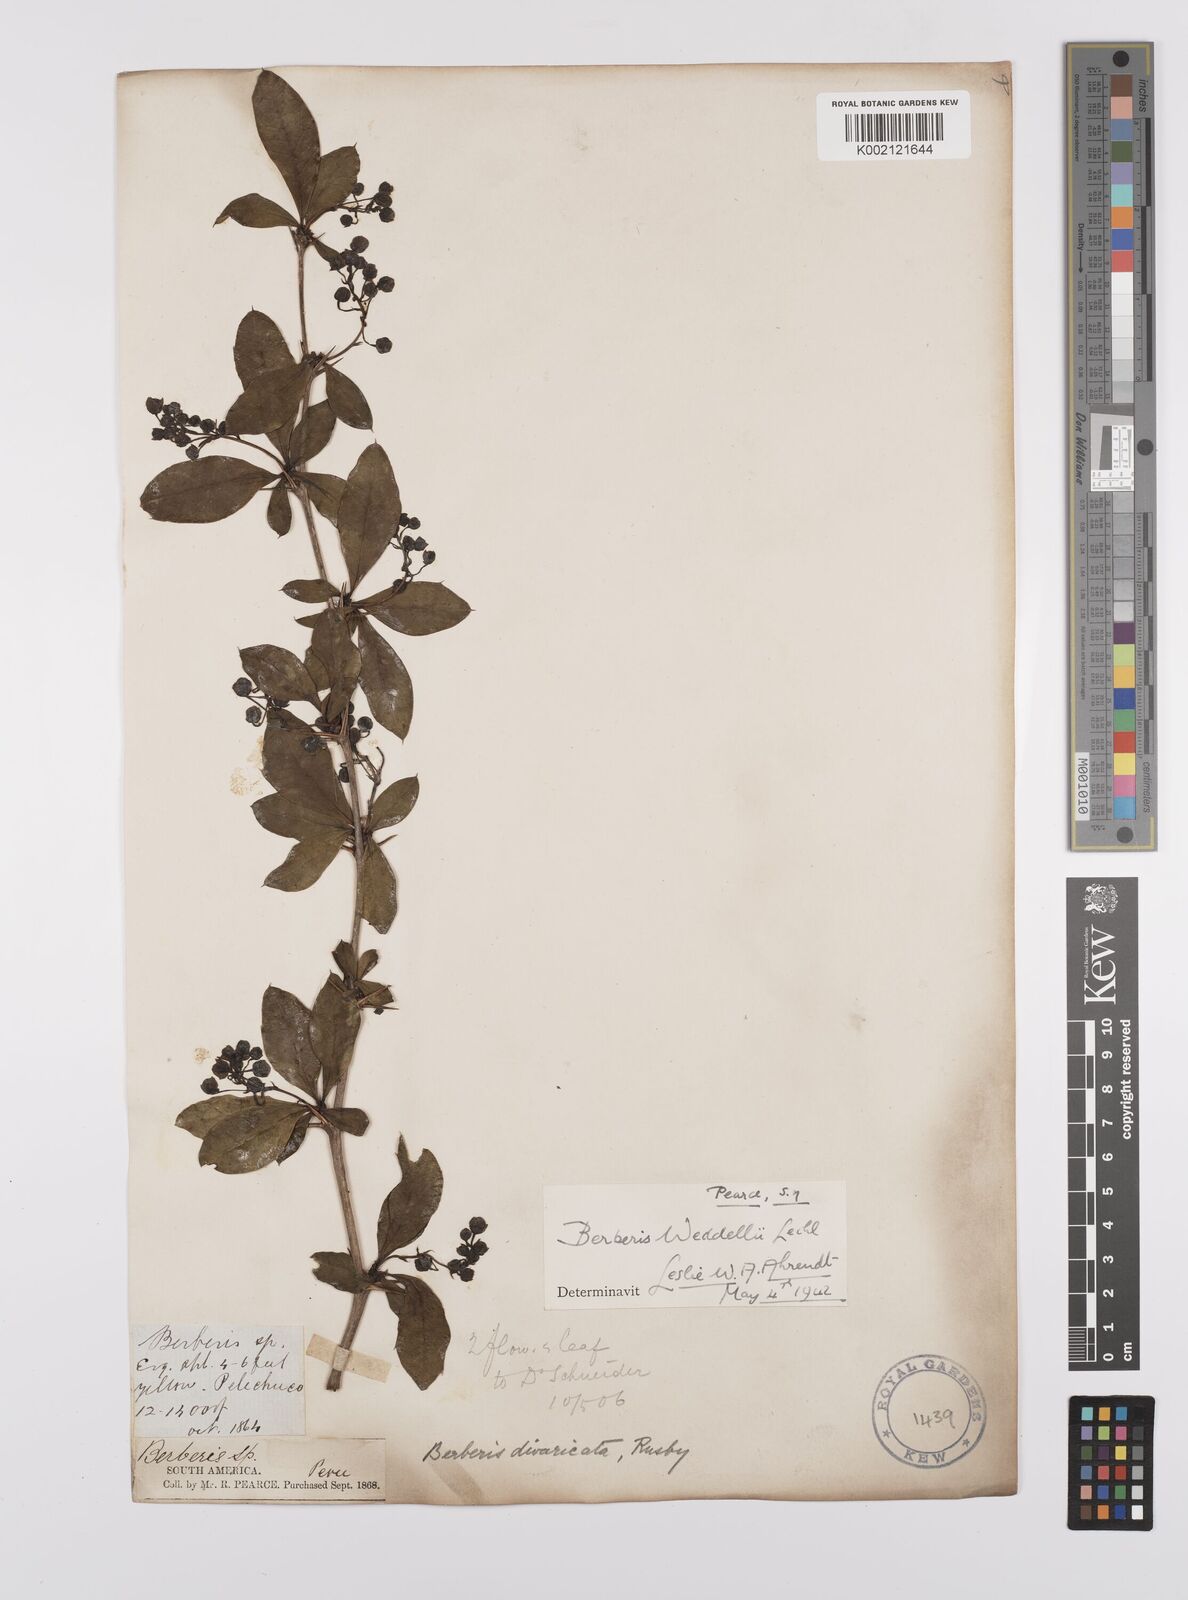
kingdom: Plantae
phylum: Tracheophyta
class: Magnoliopsida
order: Ranunculales
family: Berberidaceae
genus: Berberis
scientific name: Berberis commutata
